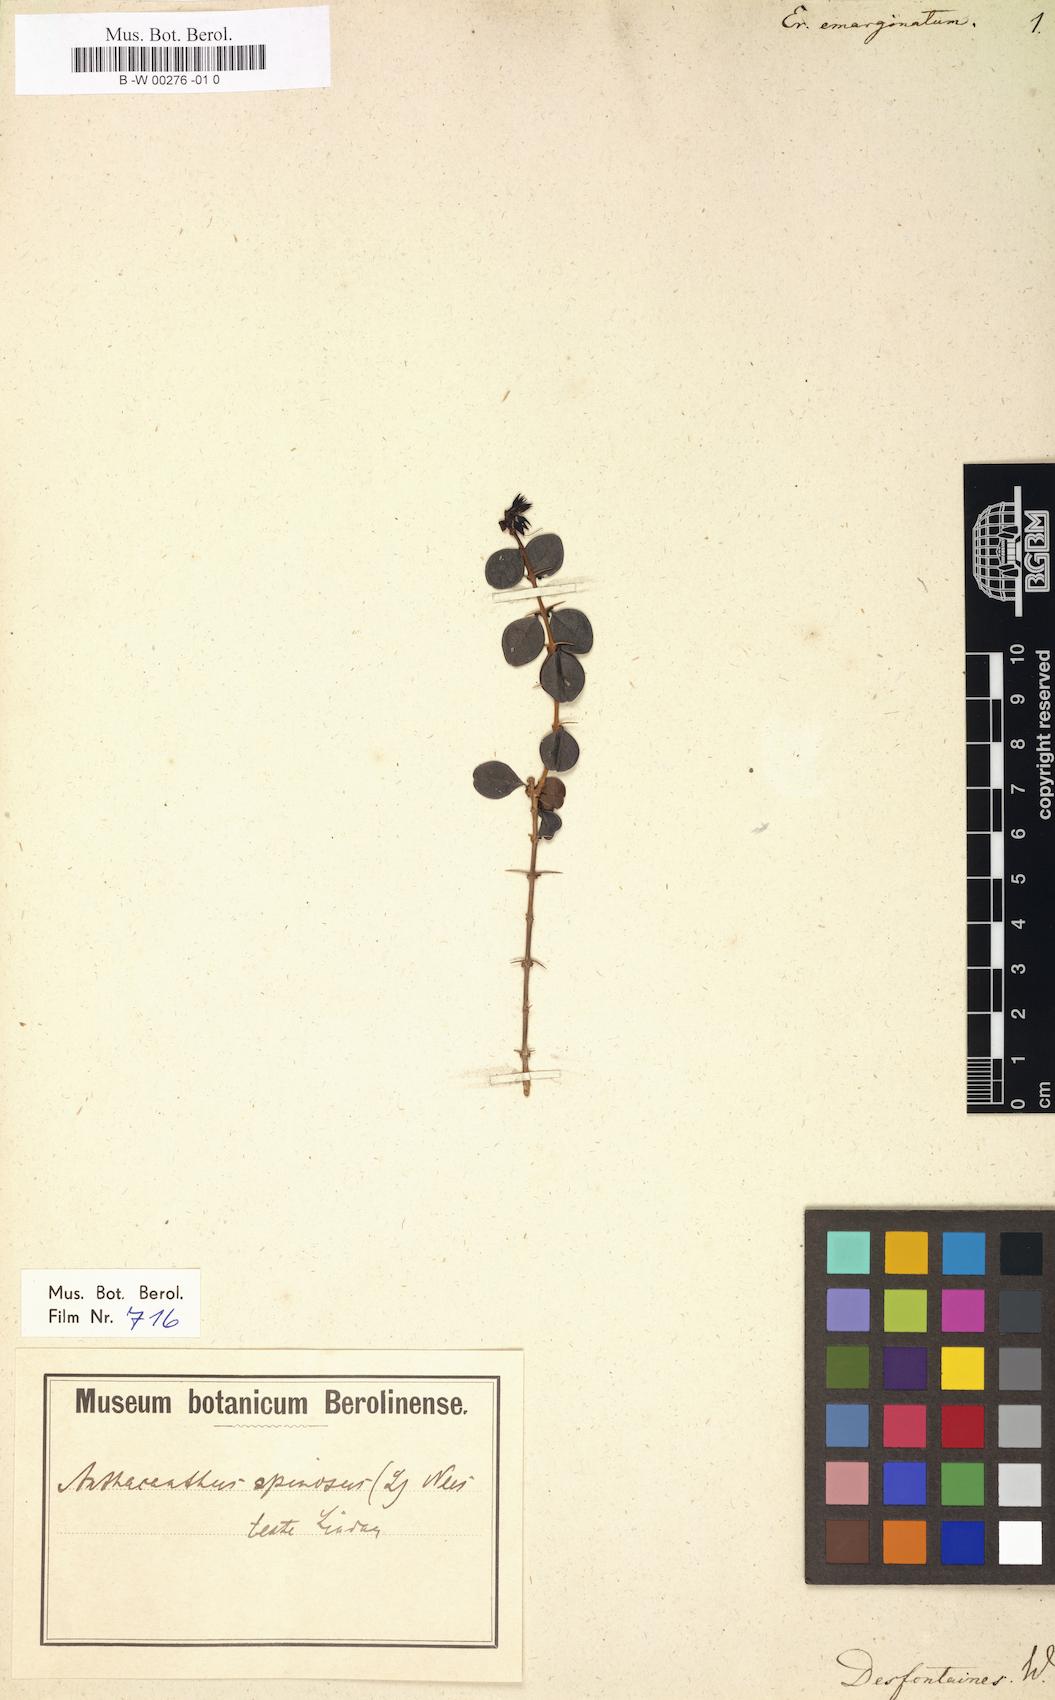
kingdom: Plantae
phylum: Tracheophyta
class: Magnoliopsida
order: Lamiales
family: Acanthaceae
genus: Oplonia
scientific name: Oplonia spinosa
